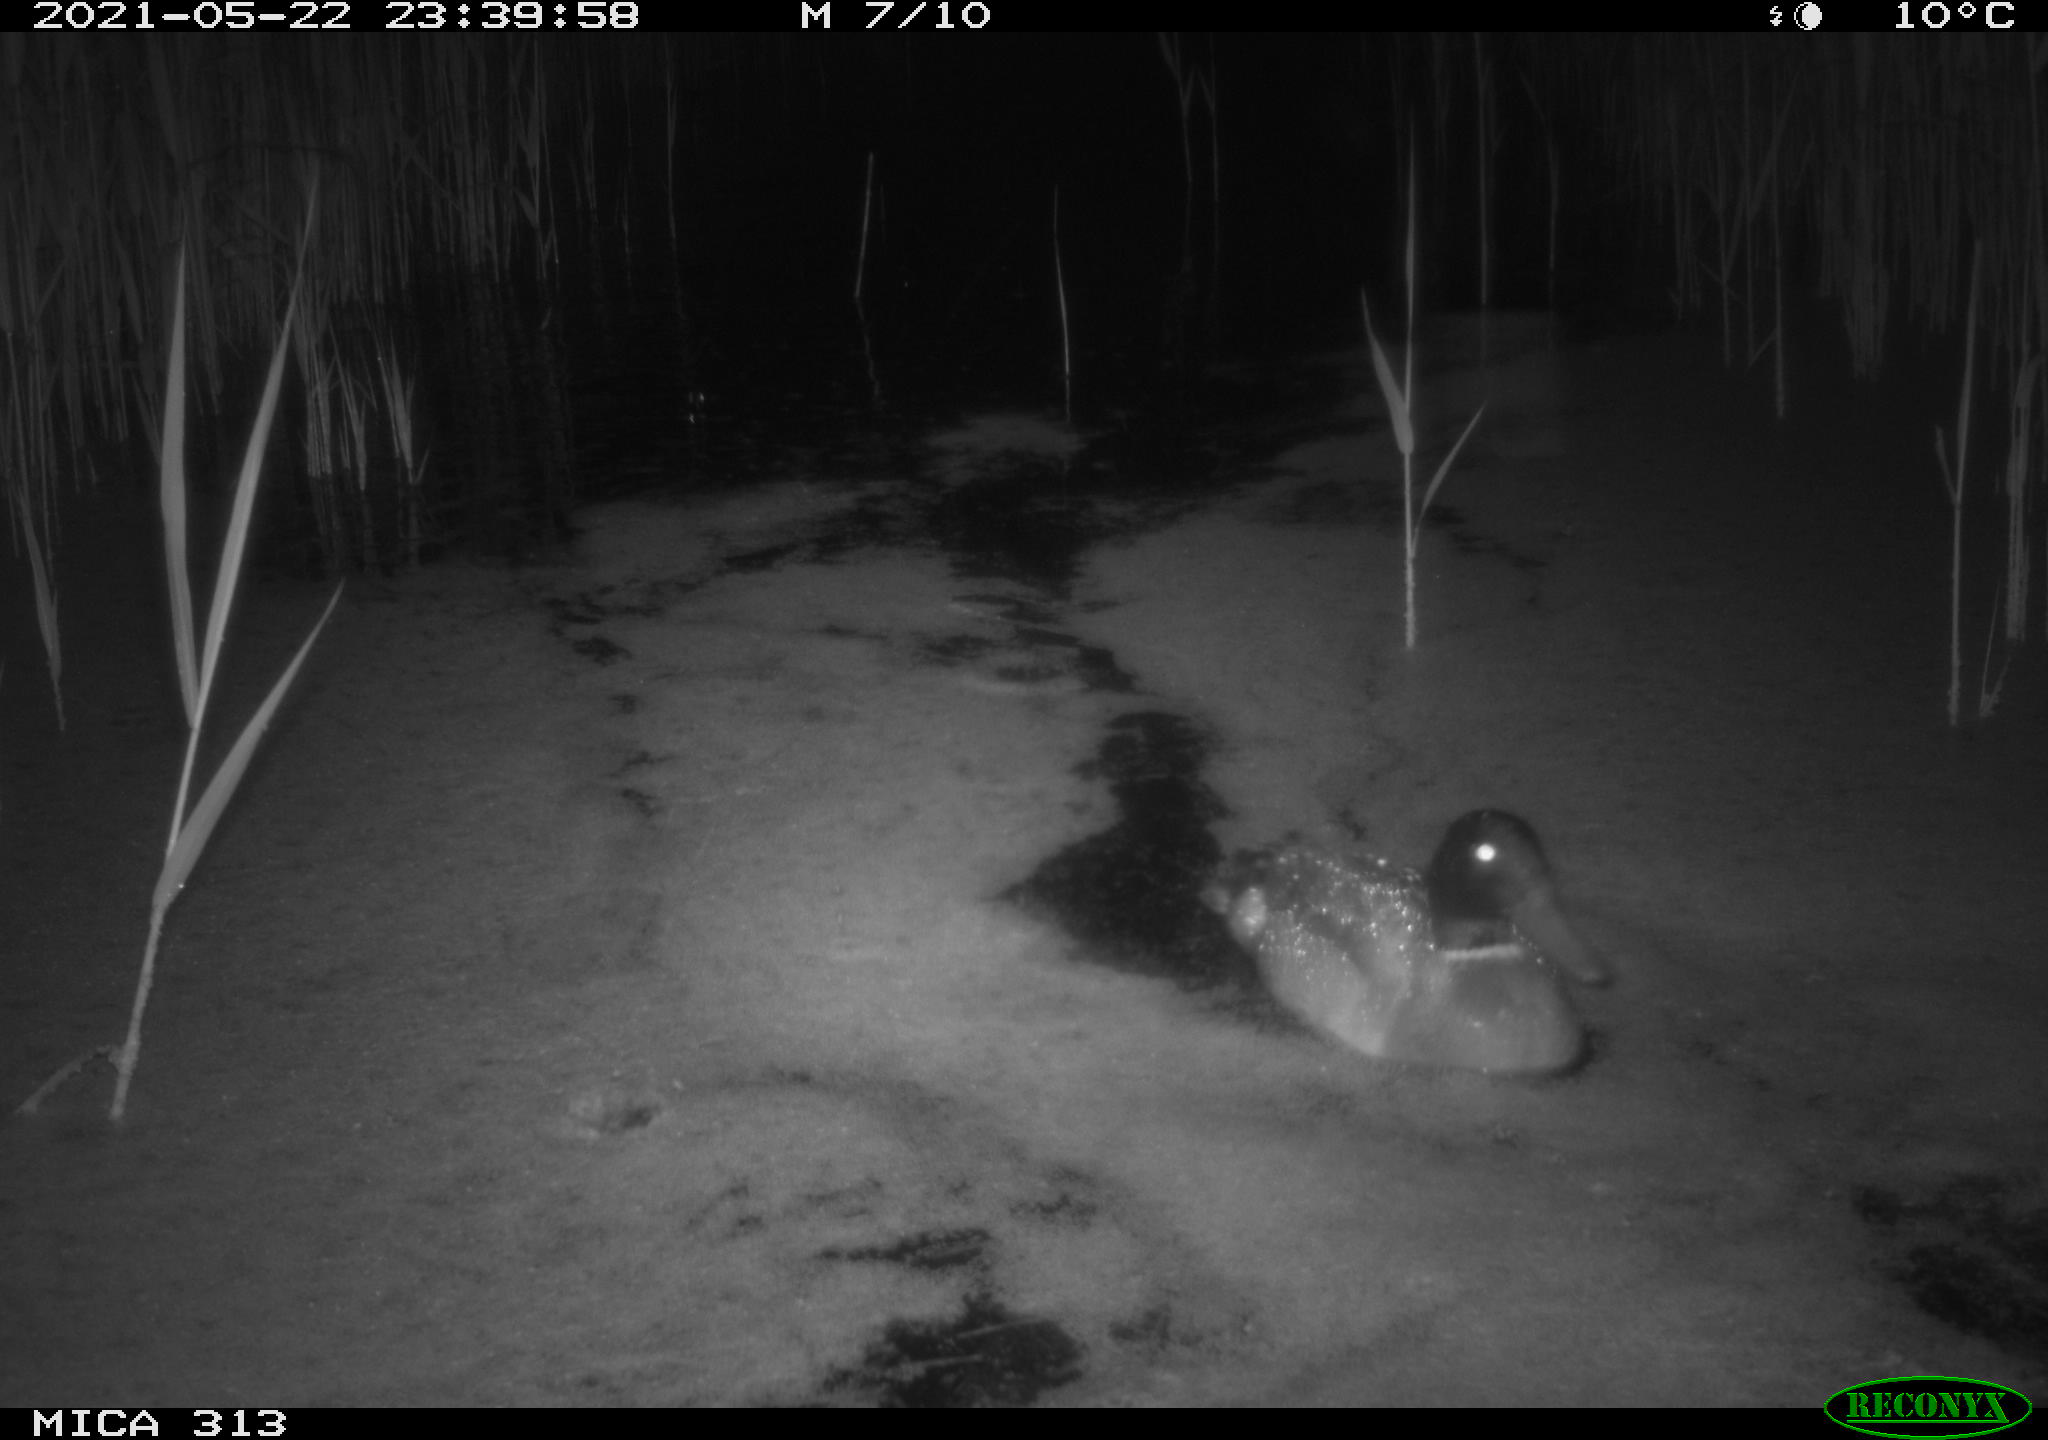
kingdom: Animalia
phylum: Chordata
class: Aves
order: Anseriformes
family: Anatidae
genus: Anas
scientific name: Anas platyrhynchos
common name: Mallard
